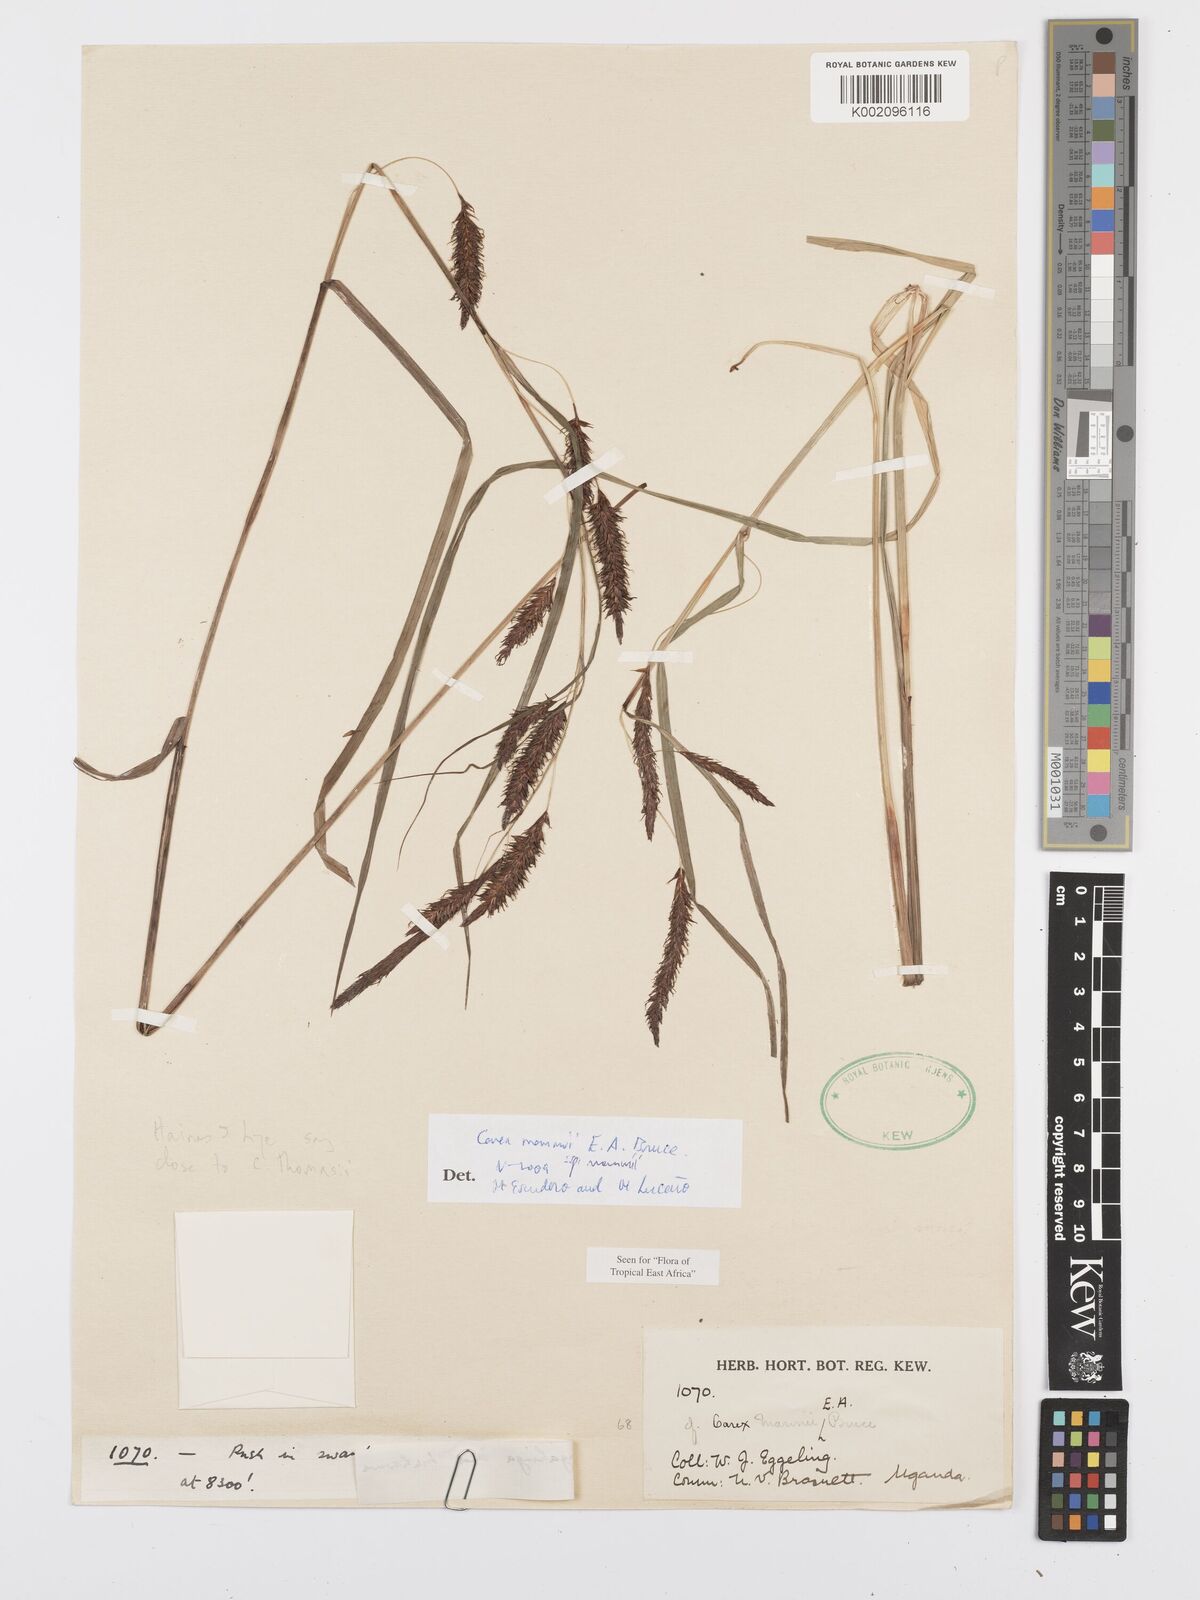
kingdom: Plantae
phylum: Tracheophyta
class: Liliopsida
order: Poales
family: Cyperaceae
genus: Carex
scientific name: Carex mannii
